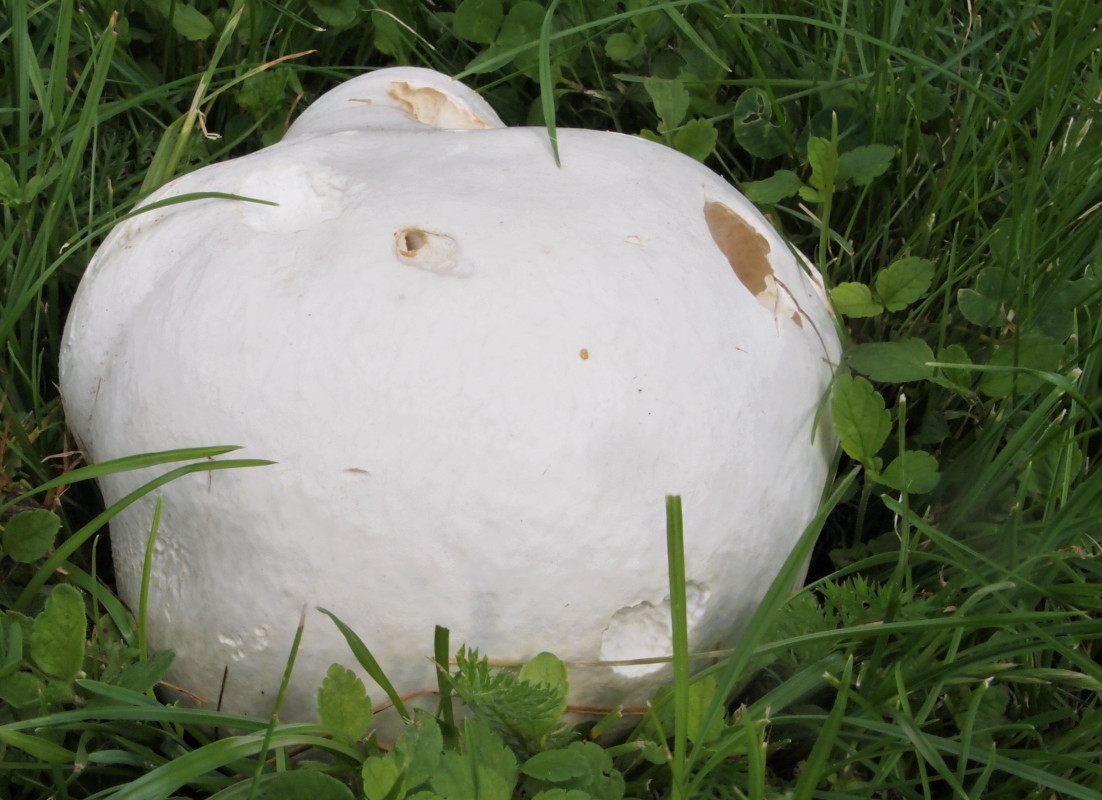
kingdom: Fungi
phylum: Basidiomycota
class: Agaricomycetes
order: Agaricales
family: Lycoperdaceae
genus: Calvatia
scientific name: Calvatia gigantea
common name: kæmpestøvbold
